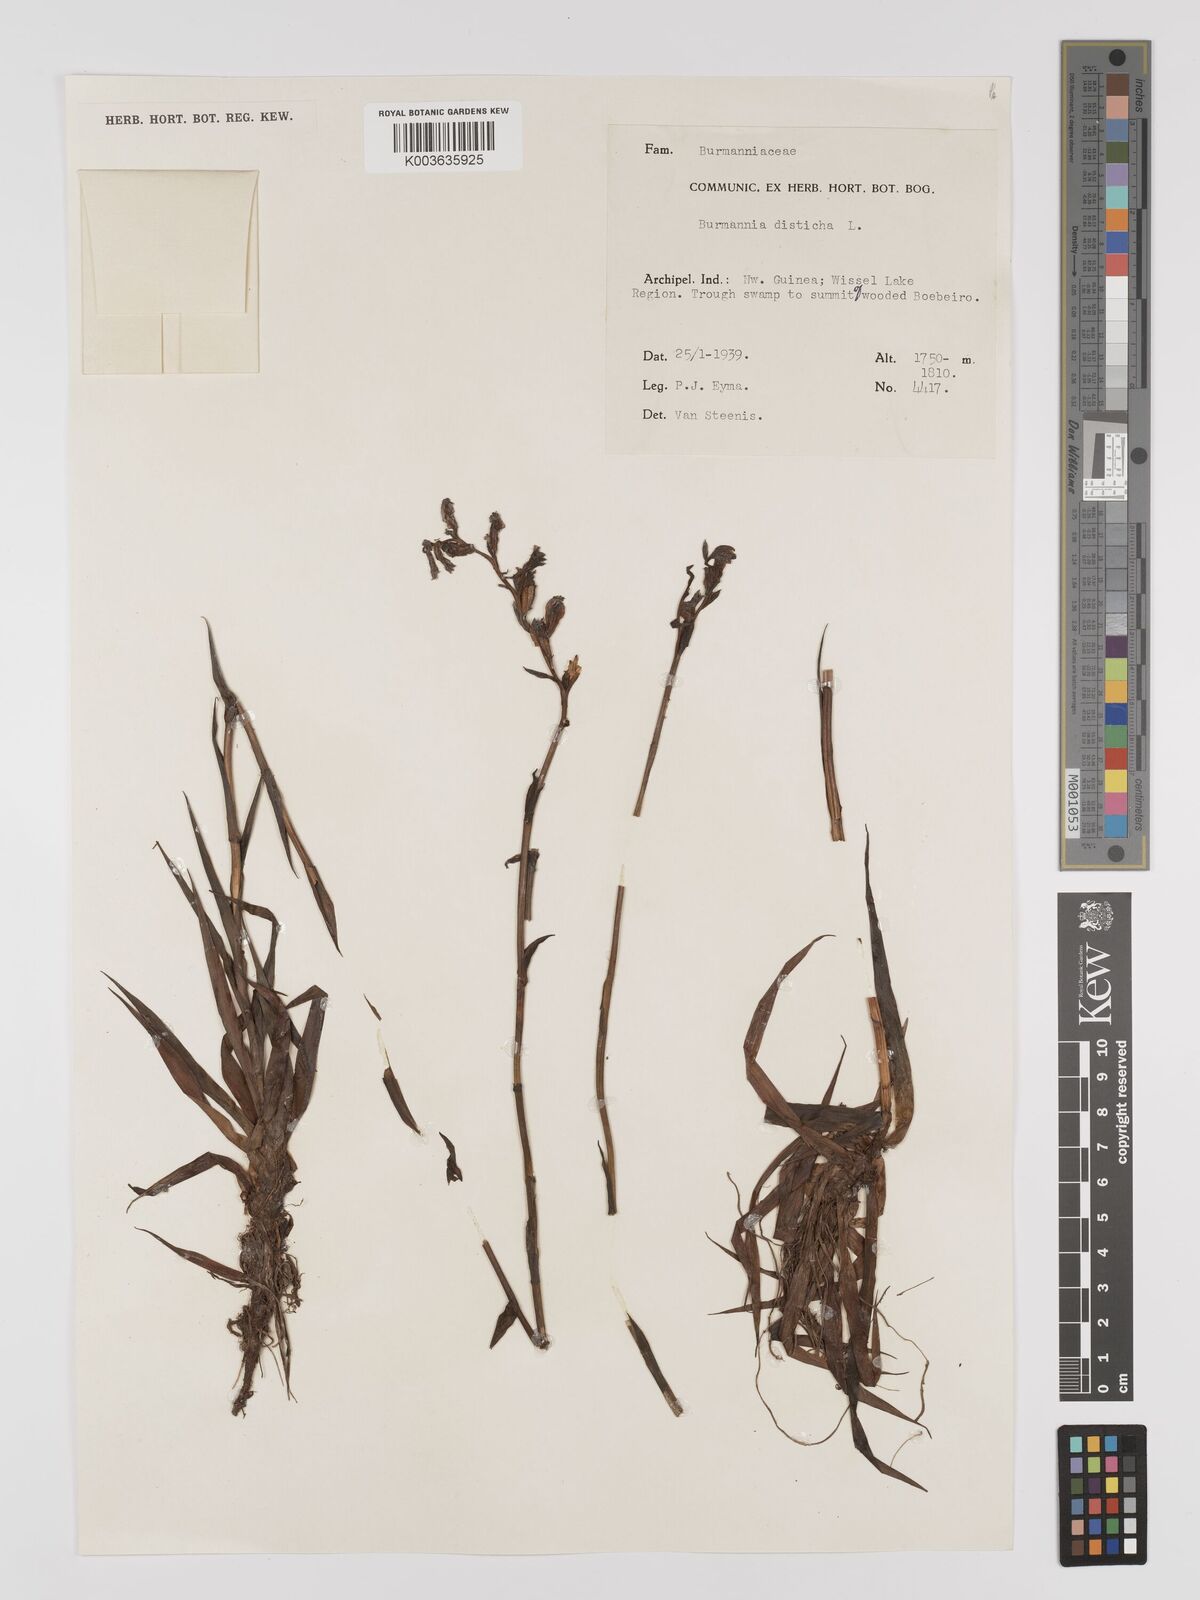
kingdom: Plantae
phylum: Tracheophyta
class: Liliopsida
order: Dioscoreales
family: Burmanniaceae
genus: Burmannia
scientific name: Burmannia disticha
